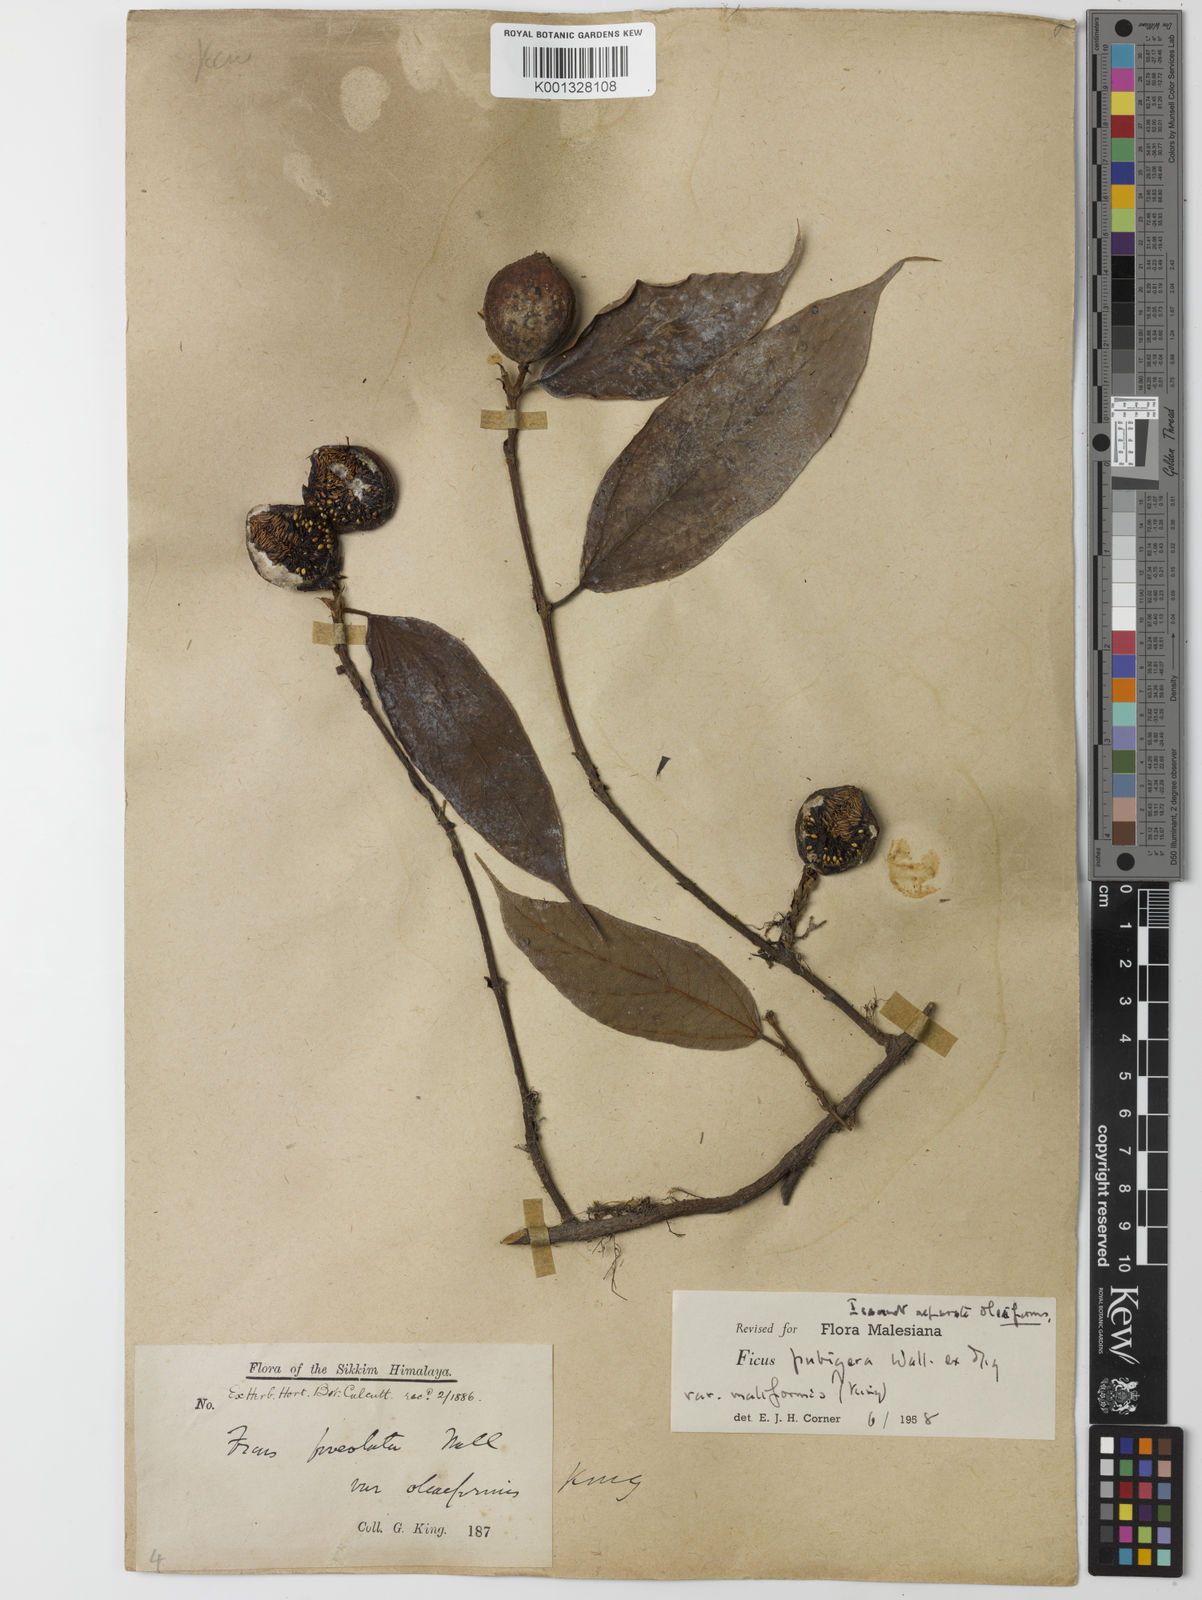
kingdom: Plantae
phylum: Tracheophyta
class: Magnoliopsida
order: Rosales
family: Moraceae
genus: Ficus
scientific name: Ficus
